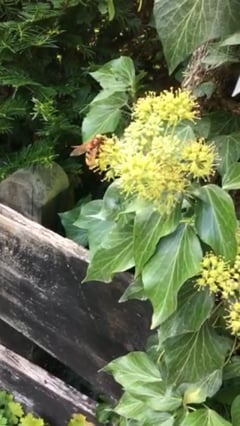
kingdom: Animalia
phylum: Arthropoda
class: Insecta
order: Diptera
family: Syrphidae
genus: Volucella
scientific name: Volucella zonaria
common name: Hornet hoverfly
